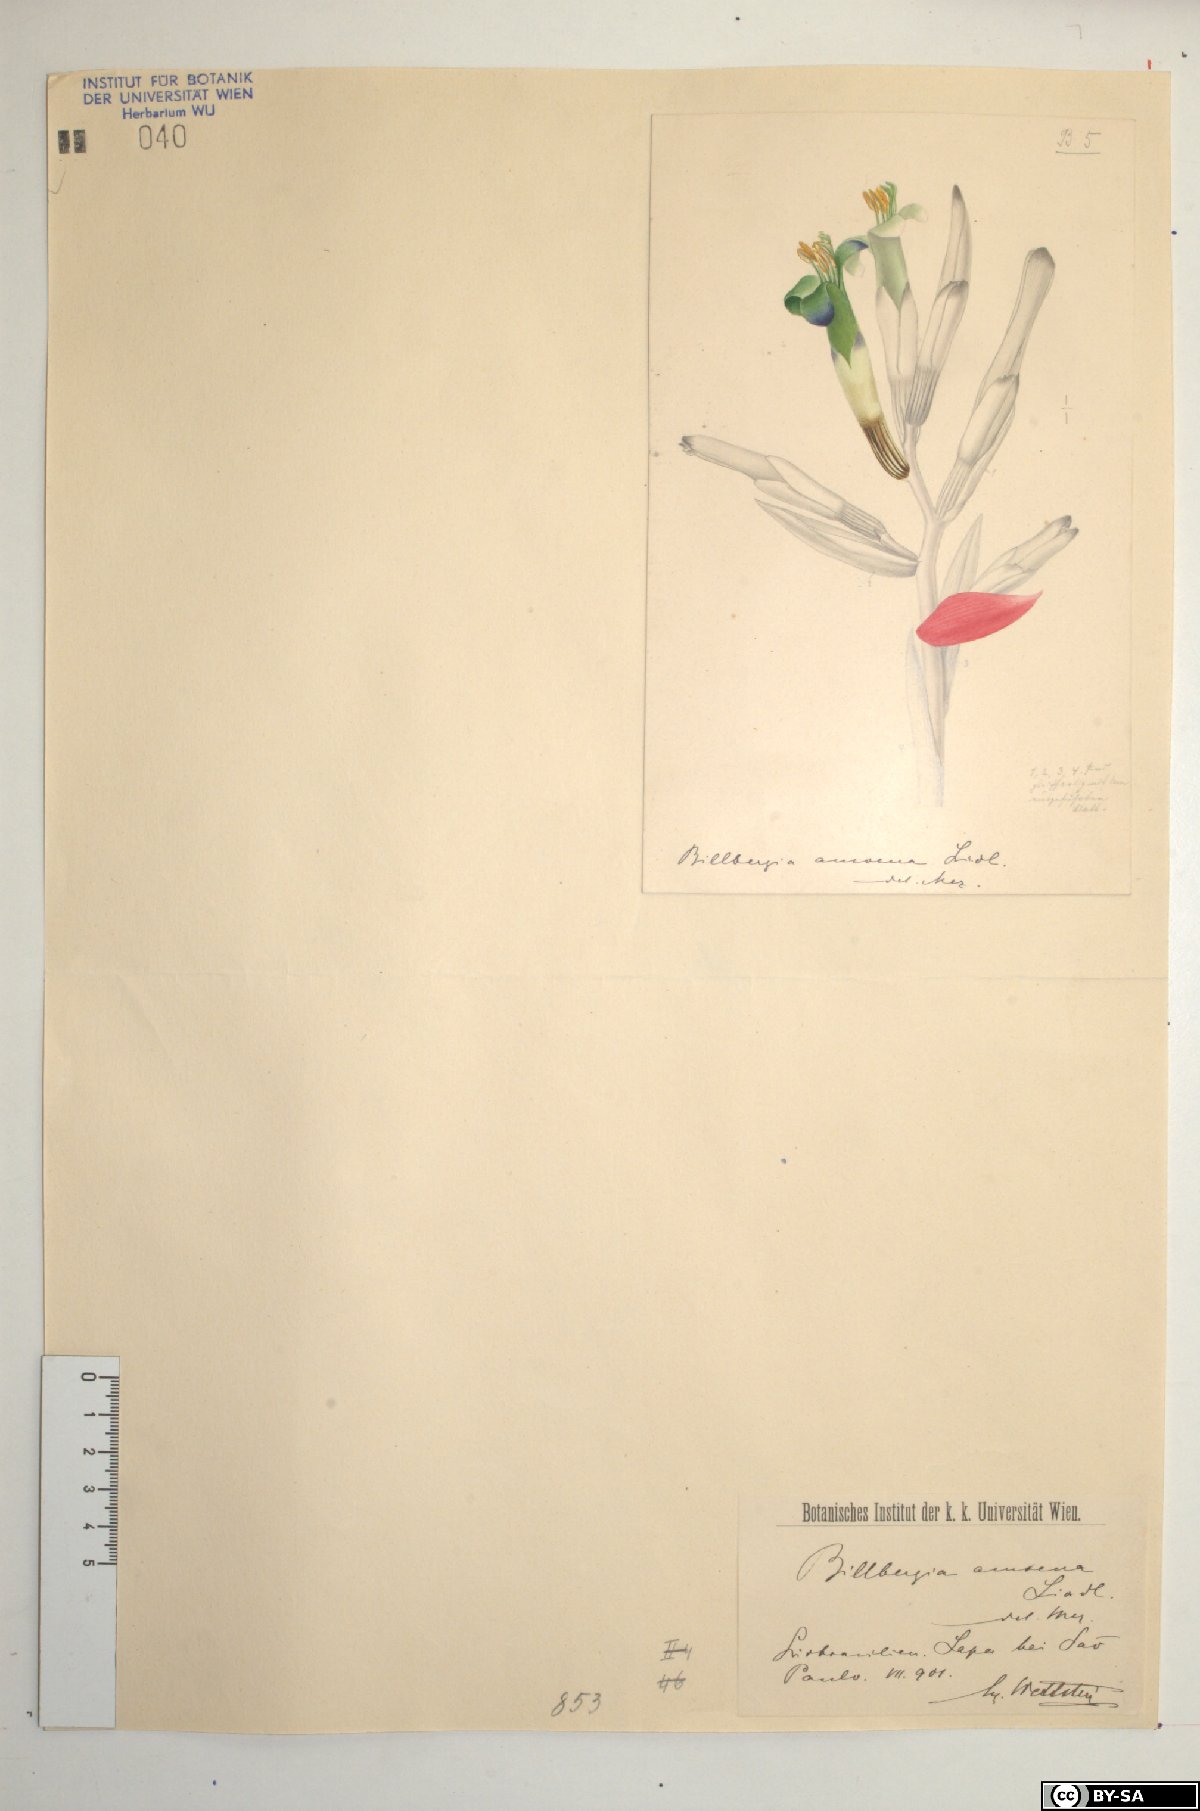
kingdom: Plantae
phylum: Tracheophyta
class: Liliopsida
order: Poales
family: Bromeliaceae
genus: Billbergia
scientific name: Billbergia amoena
